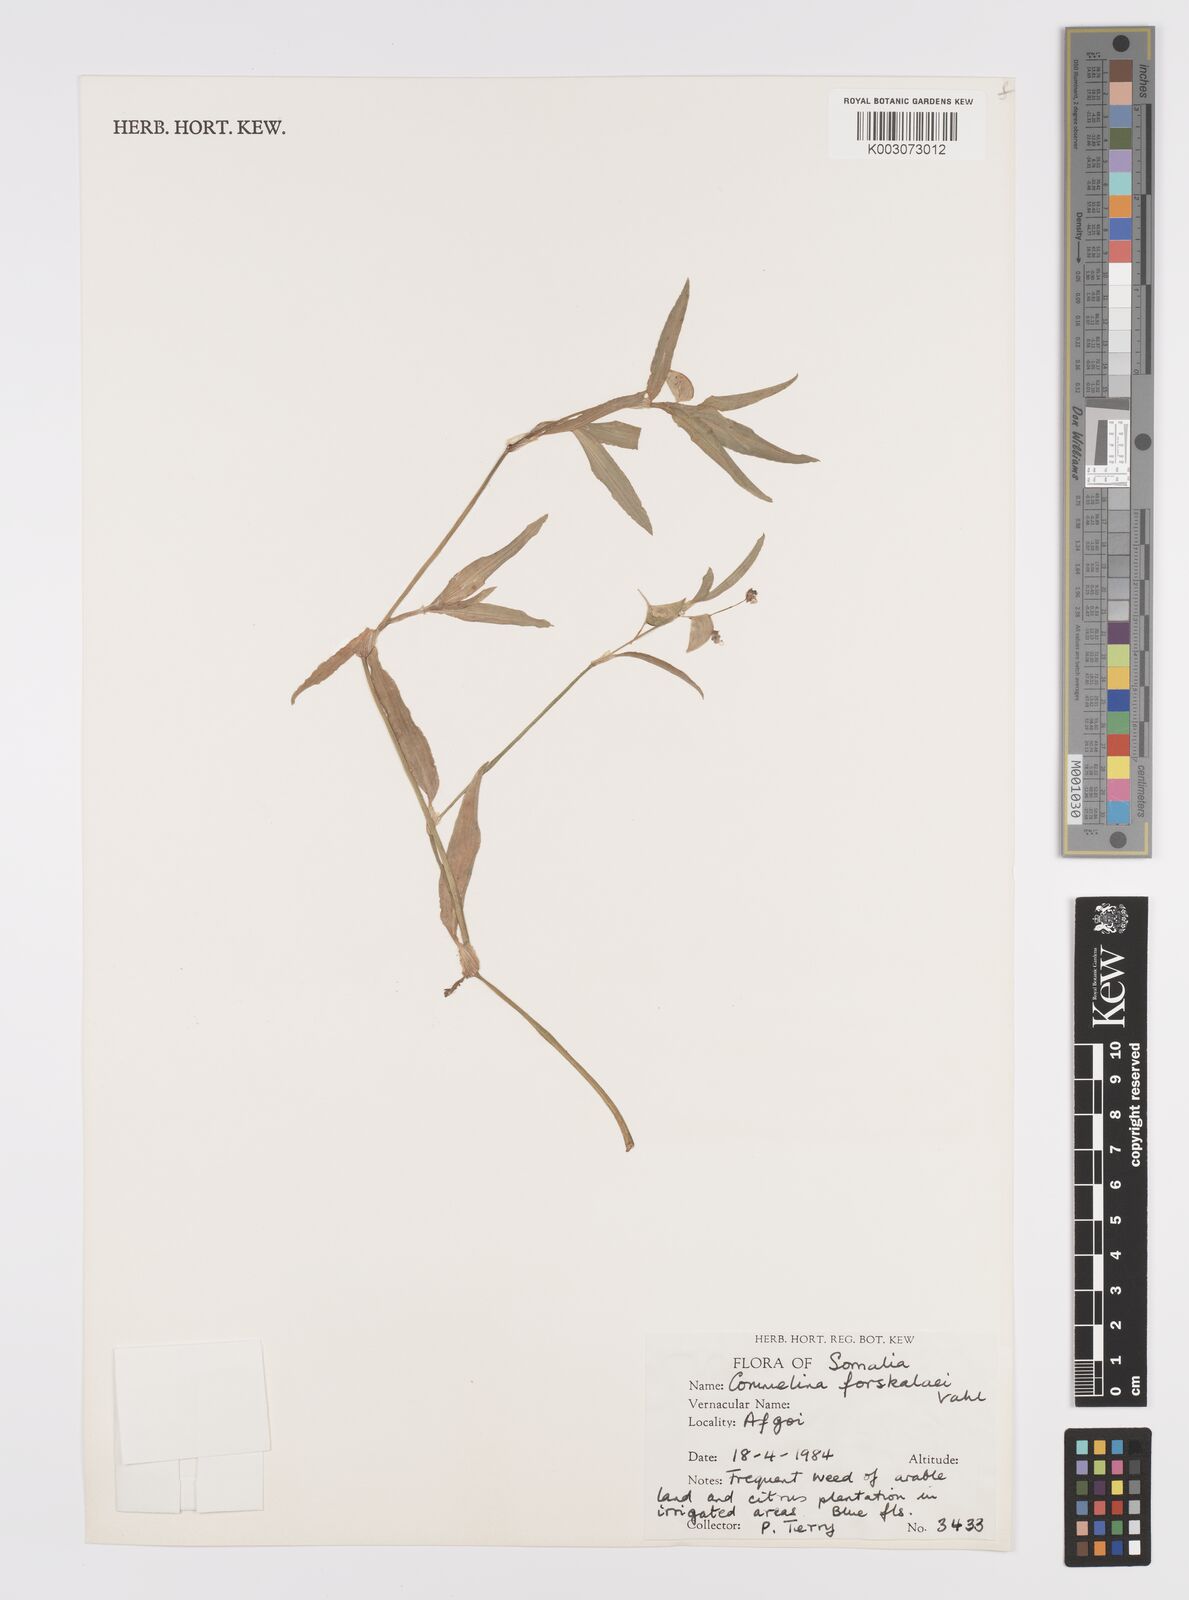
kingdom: Plantae
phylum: Tracheophyta
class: Liliopsida
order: Commelinales
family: Commelinaceae
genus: Commelina
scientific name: Commelina forskaolii
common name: Rat's ear
